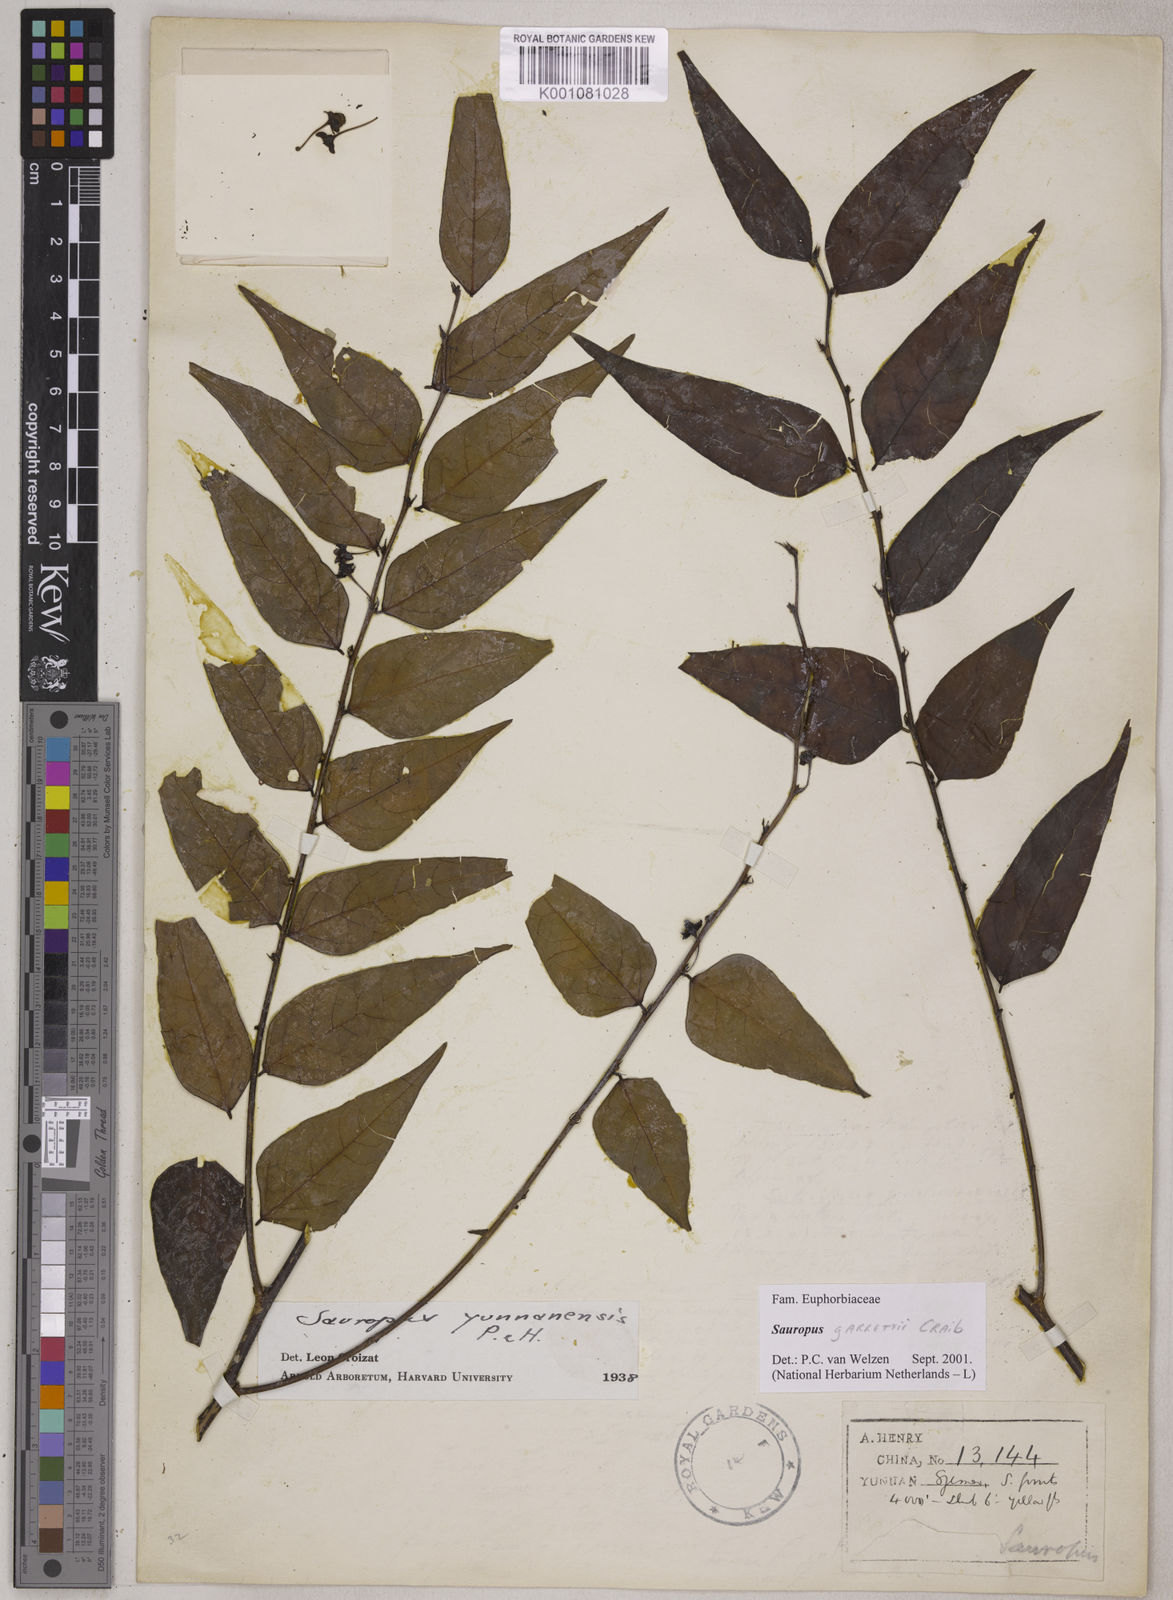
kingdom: Plantae
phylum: Tracheophyta
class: Magnoliopsida
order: Malpighiales
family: Phyllanthaceae
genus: Breynia
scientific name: Breynia garrettii
